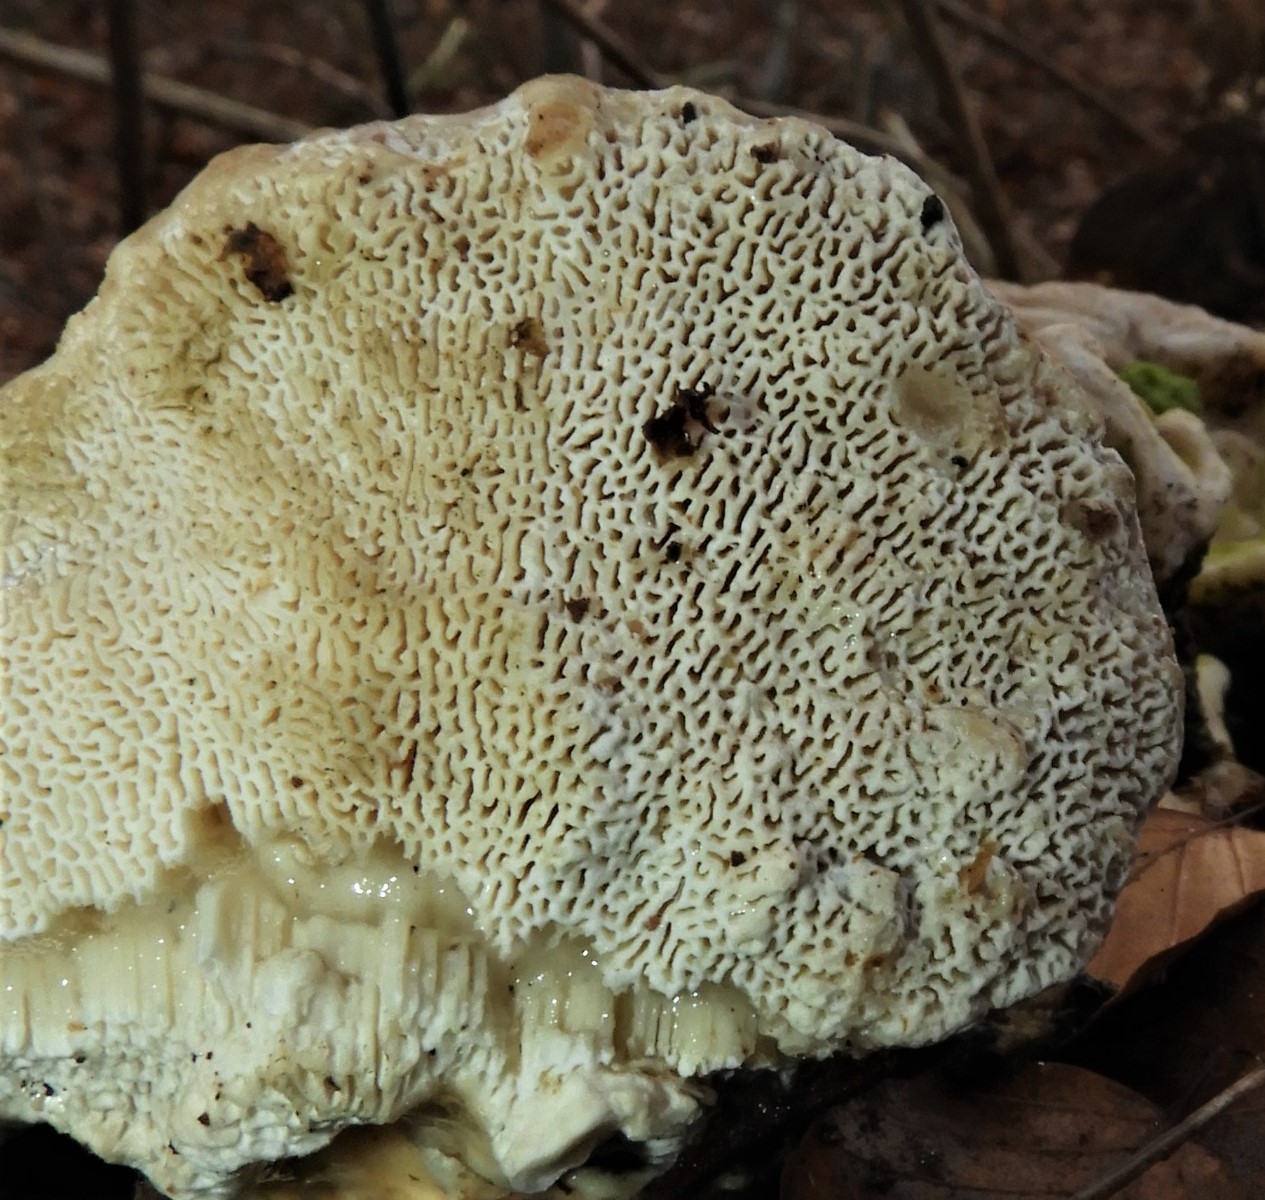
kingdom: Fungi
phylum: Basidiomycota
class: Agaricomycetes
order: Polyporales
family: Polyporaceae
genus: Trametes
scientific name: Trametes gibbosa
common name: puklet læderporesvamp
